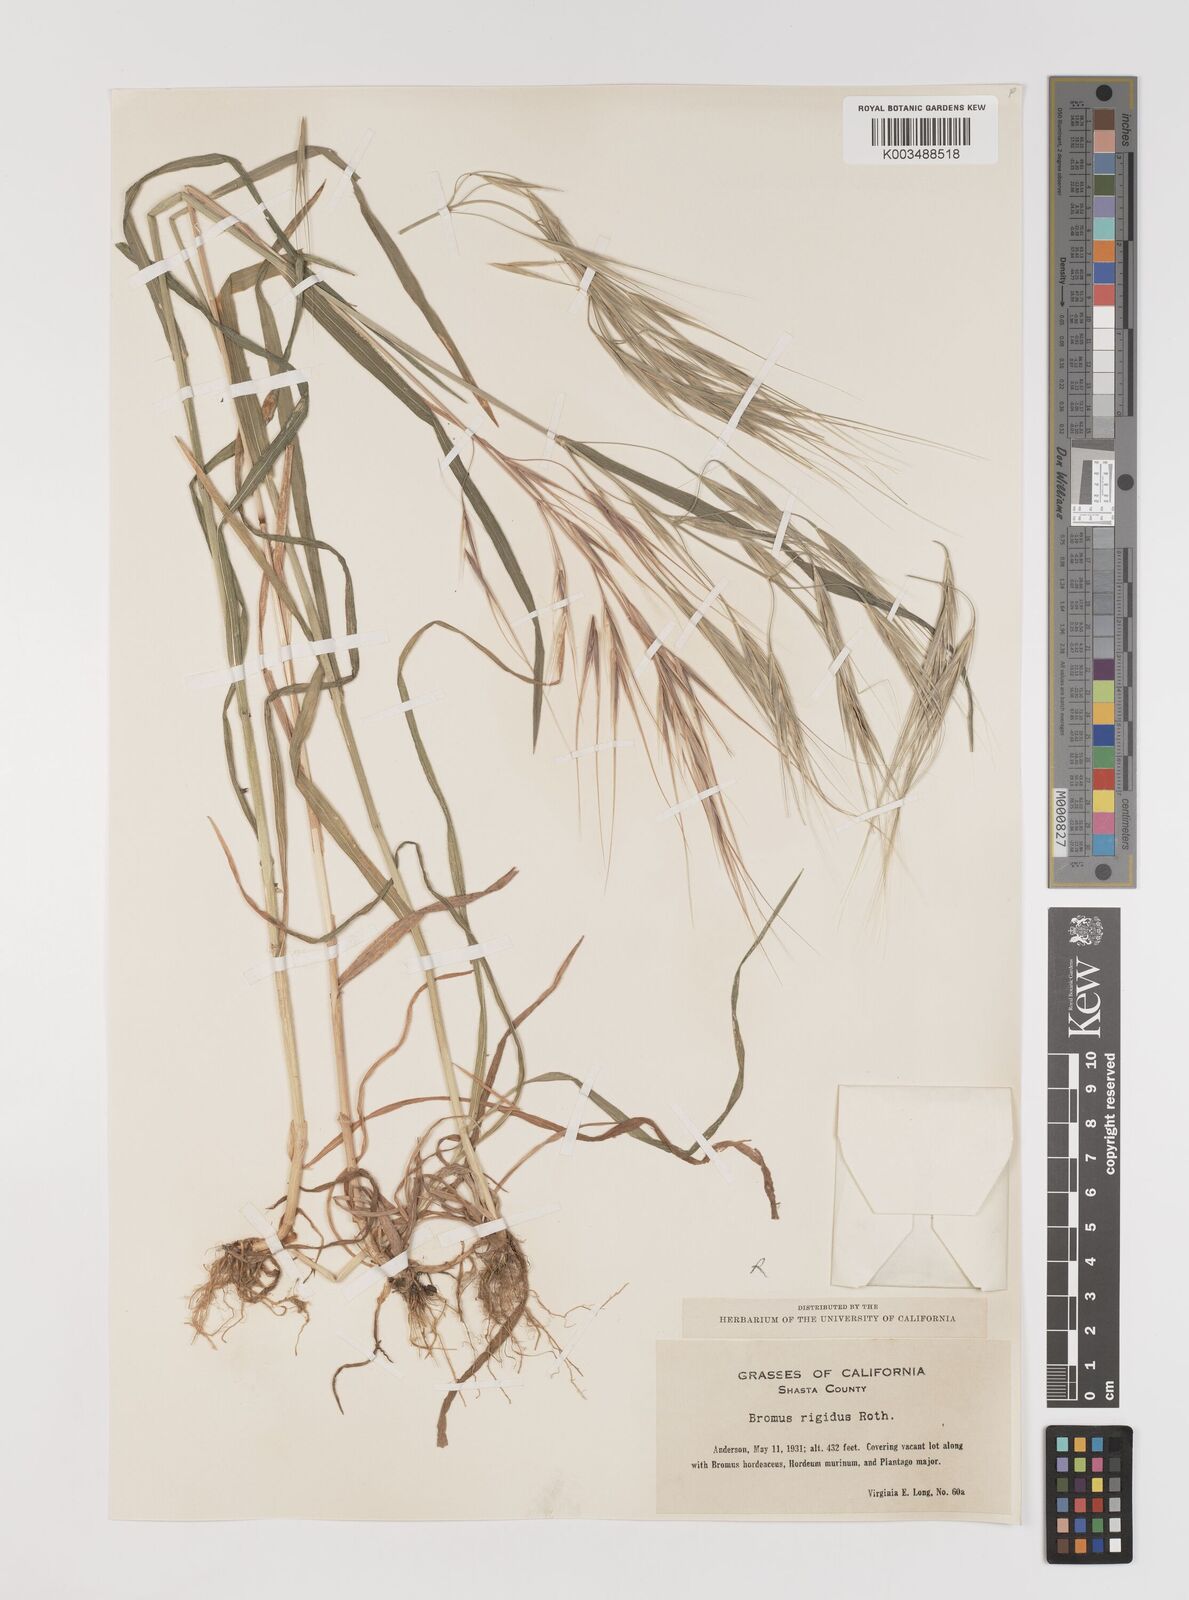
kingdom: Plantae
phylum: Tracheophyta
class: Liliopsida
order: Poales
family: Poaceae
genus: Bromus
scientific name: Bromus diandrus
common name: Ripgut brome
